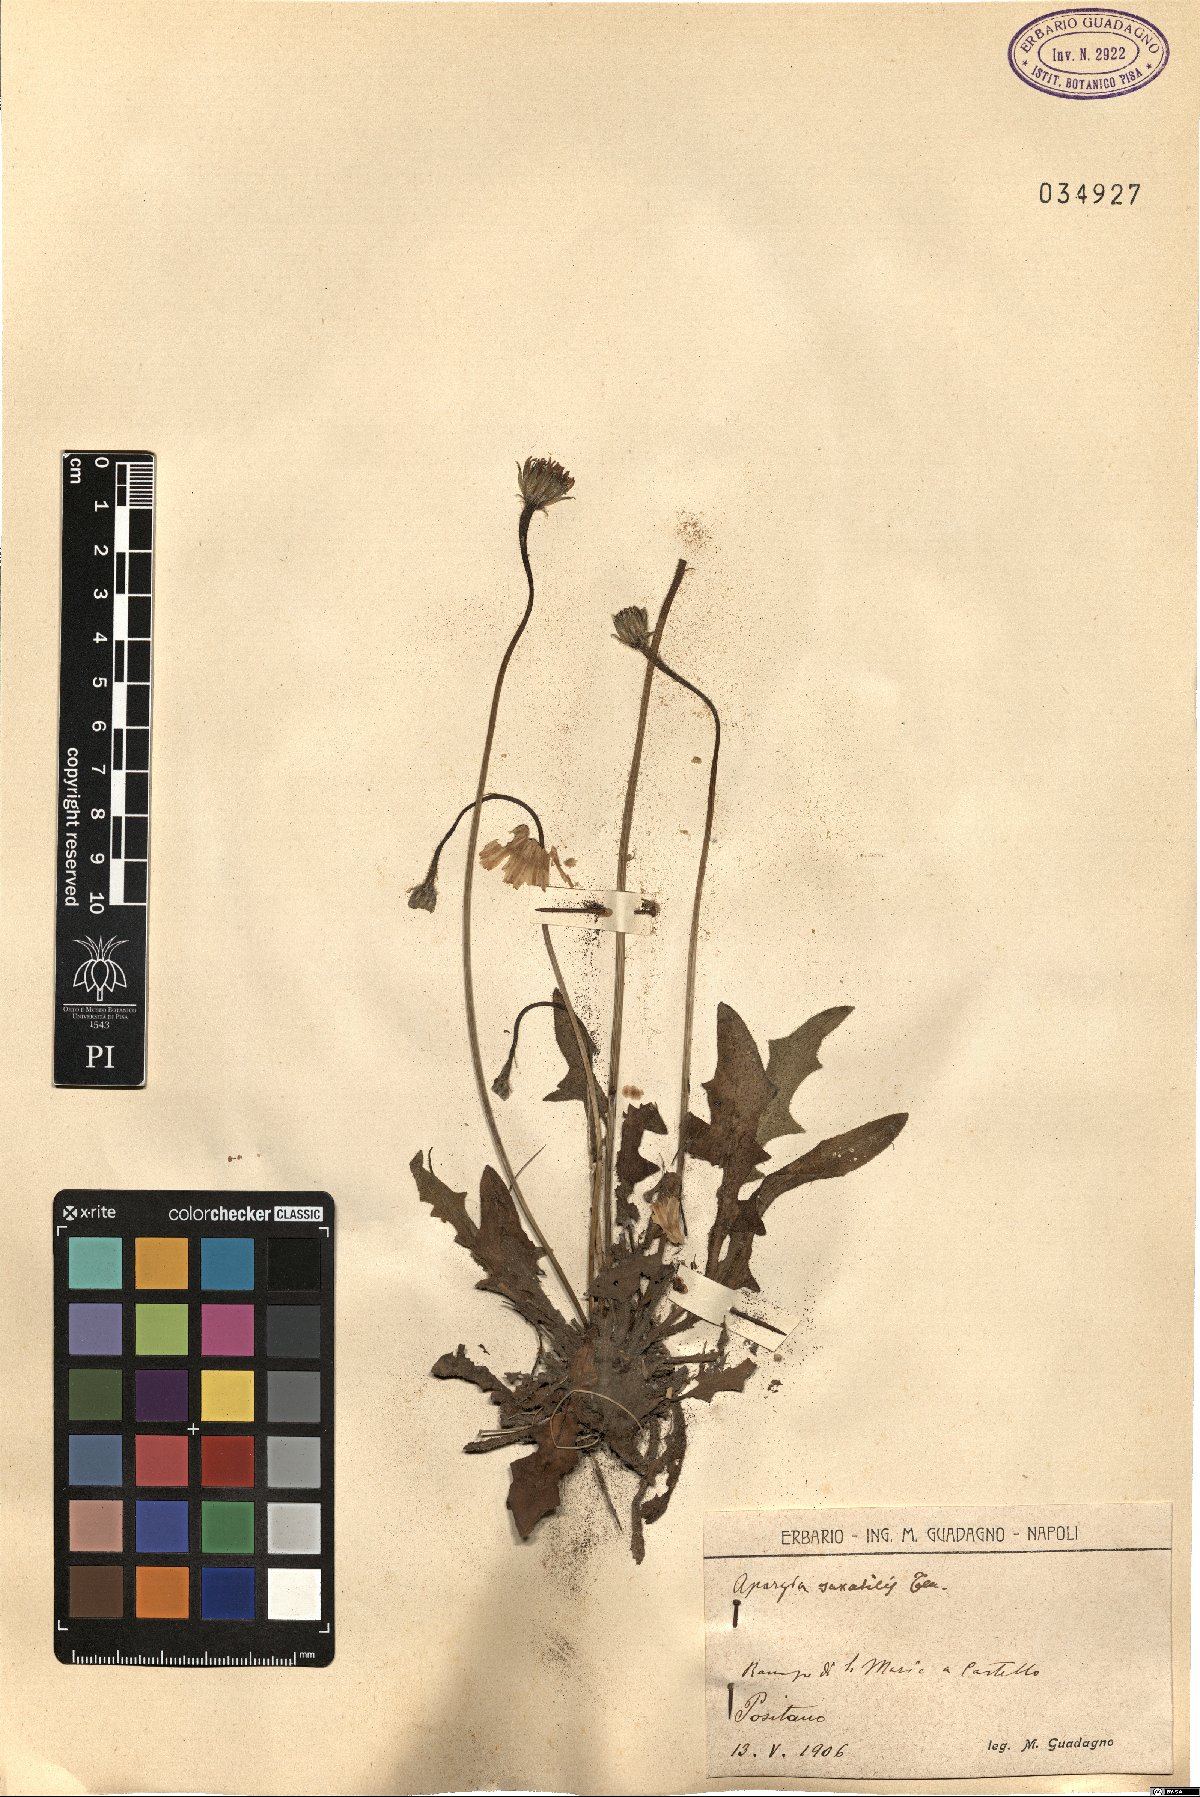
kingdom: Plantae
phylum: Tracheophyta
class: Magnoliopsida
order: Asterales
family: Asteraceae
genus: Leontodon
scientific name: Leontodon crispus
